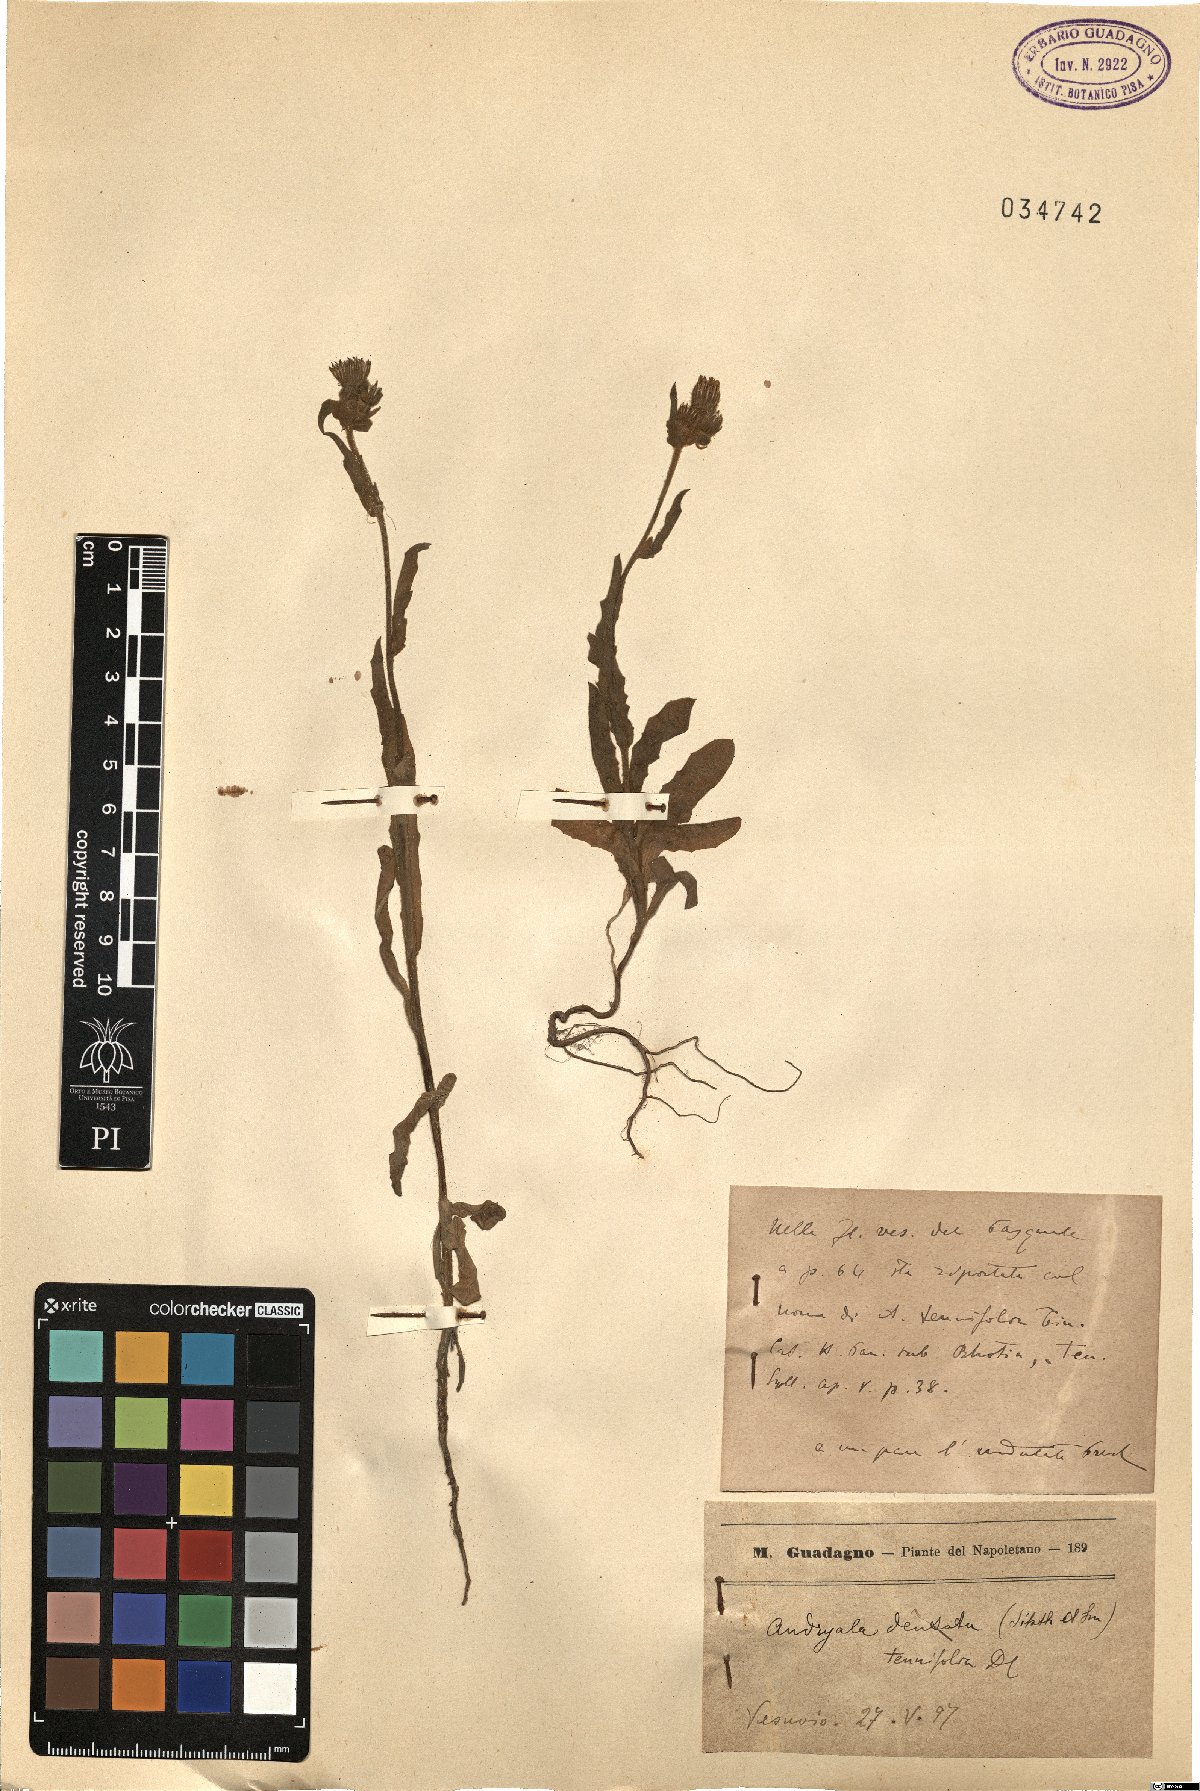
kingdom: Plantae
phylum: Tracheophyta
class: Magnoliopsida
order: Asterales
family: Asteraceae
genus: Andryala
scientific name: Andryala tenuifolia
